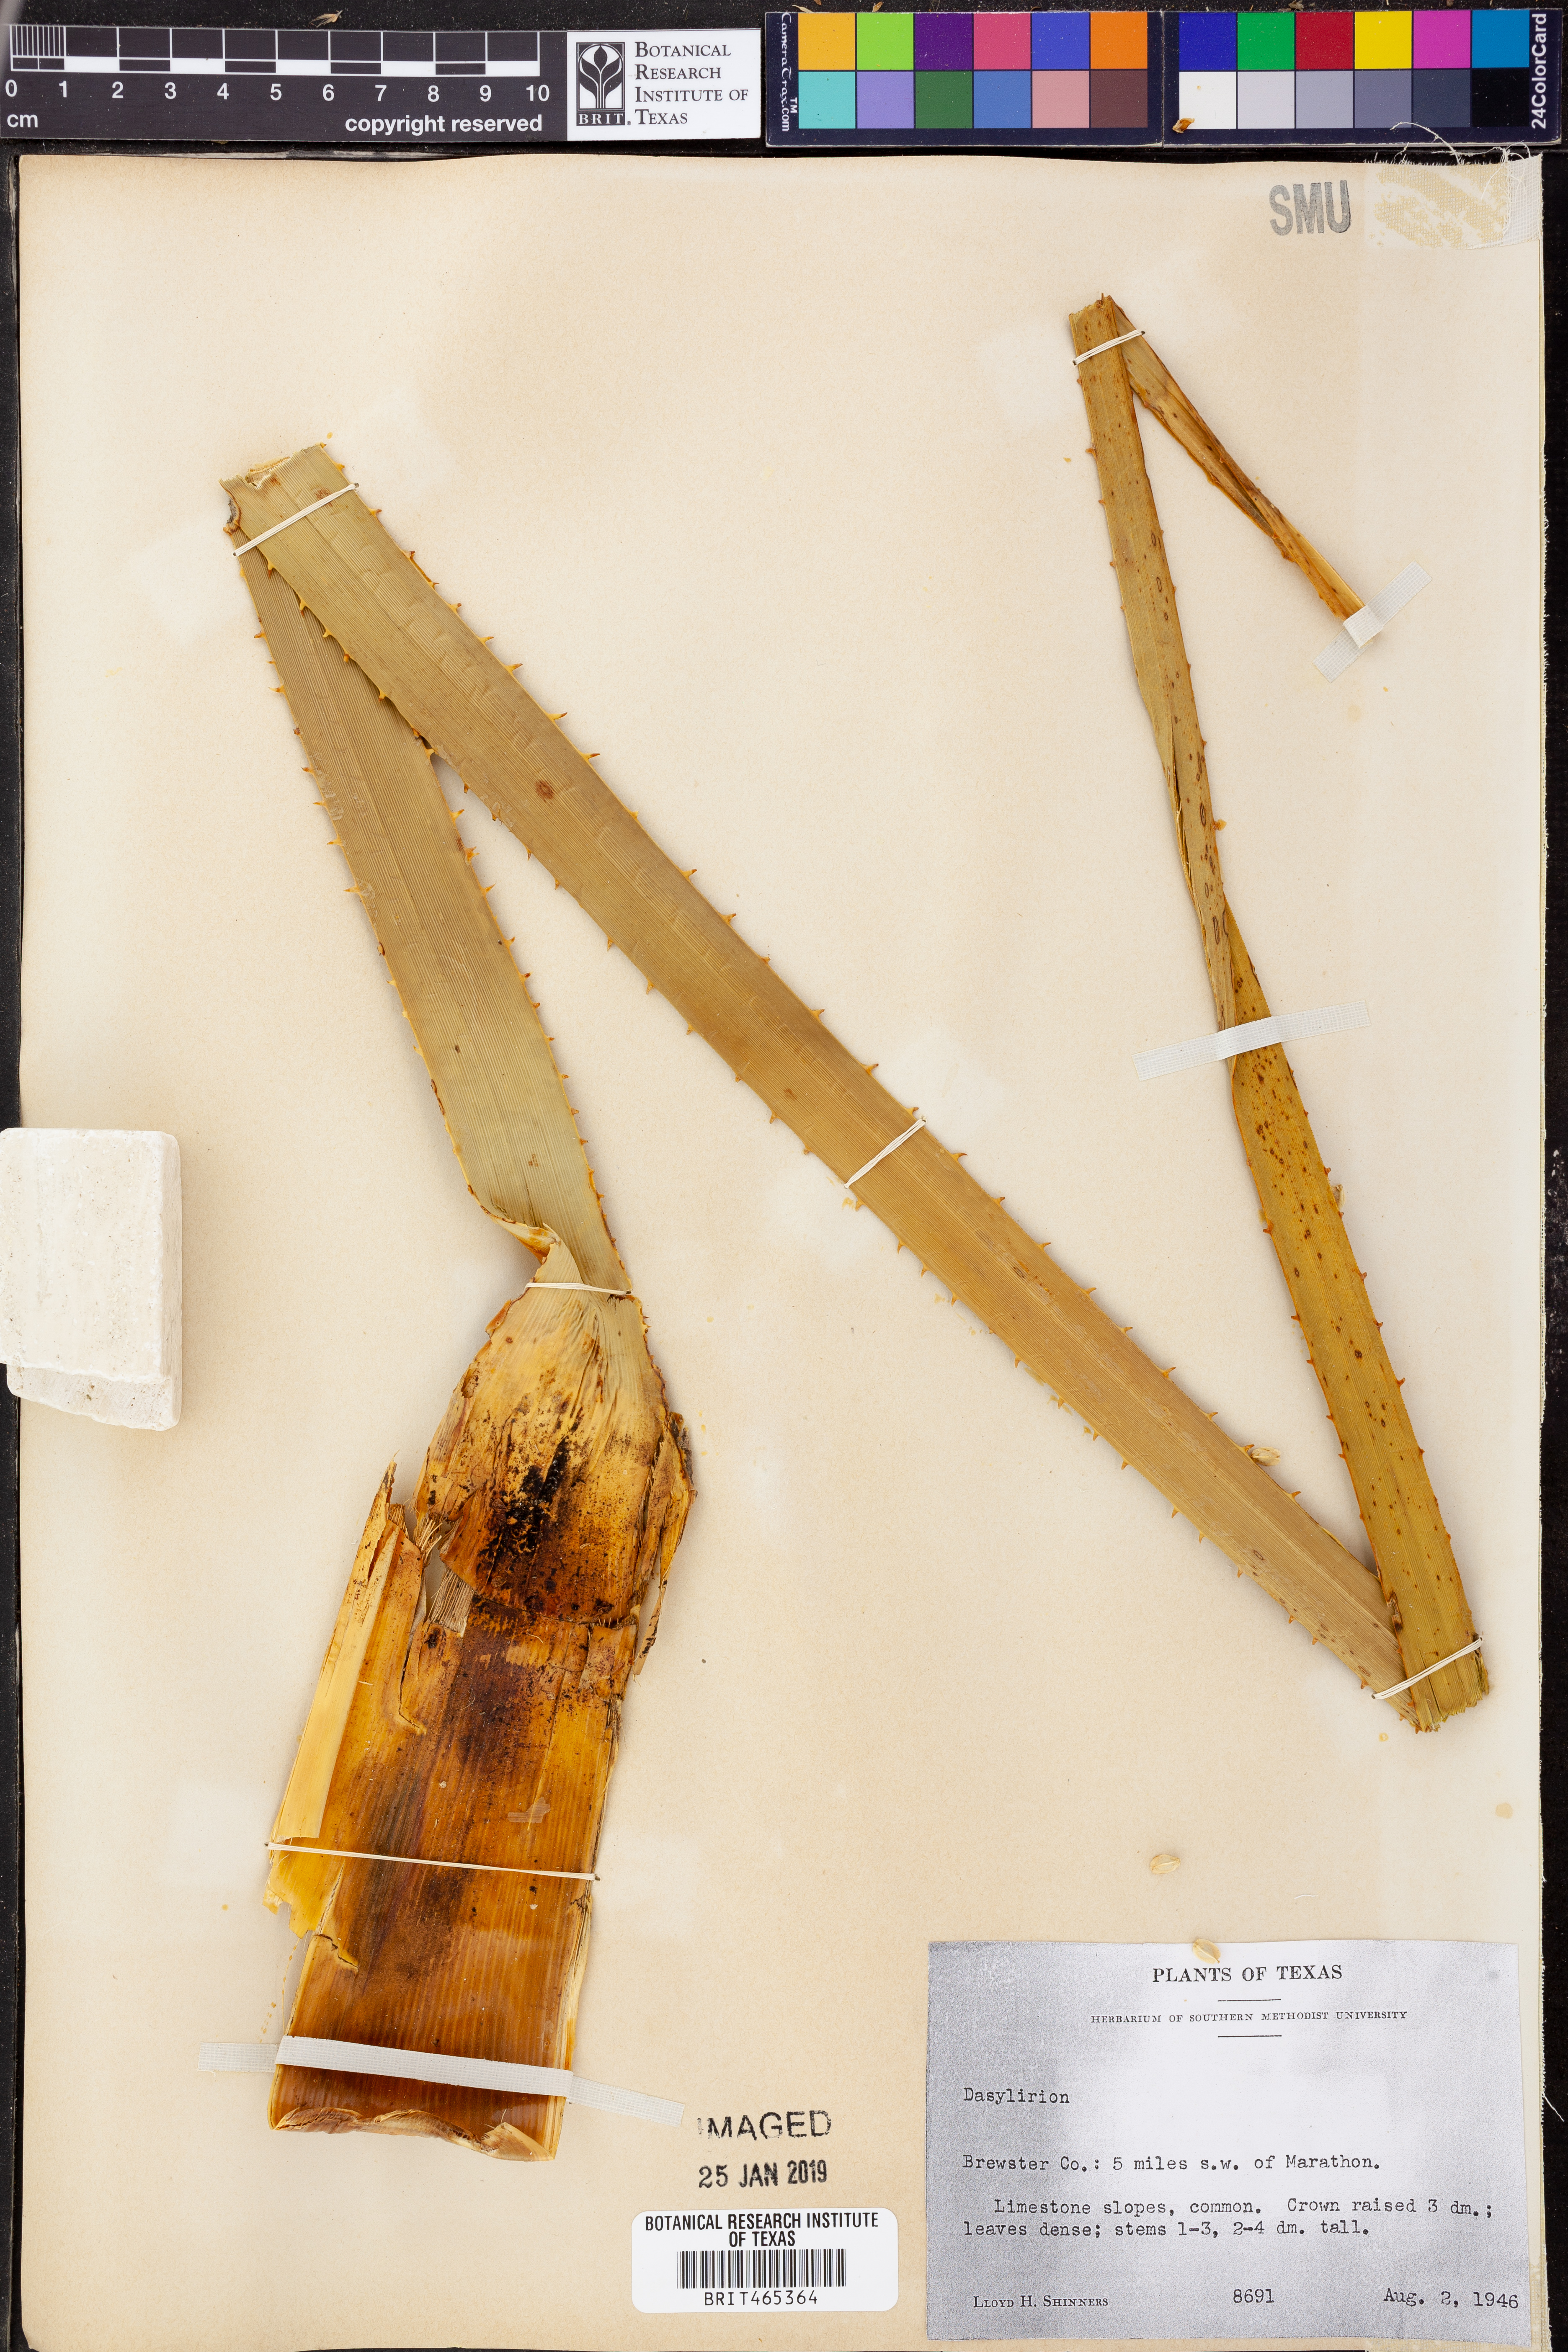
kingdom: Plantae
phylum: Tracheophyta
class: Liliopsida
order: Asparagales
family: Asparagaceae
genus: Dasylirion
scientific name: Dasylirion
